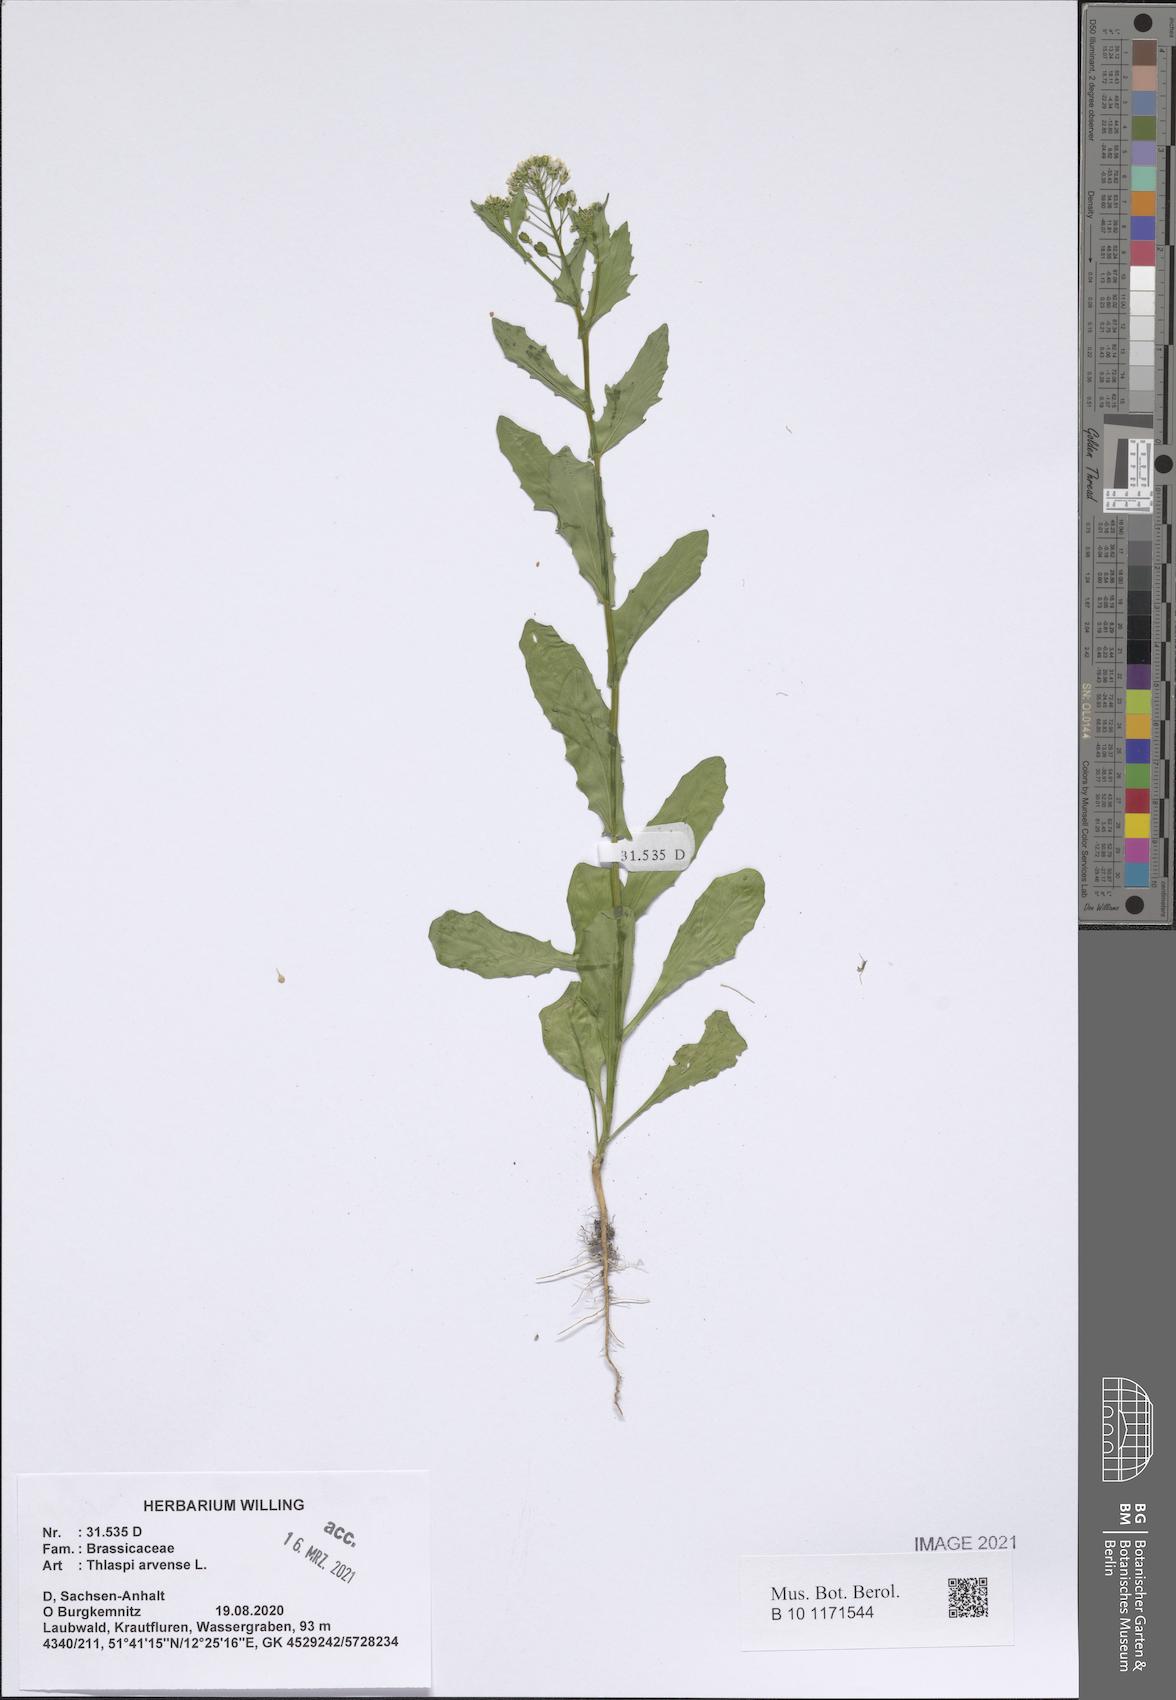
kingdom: Plantae
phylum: Tracheophyta
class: Magnoliopsida
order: Brassicales
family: Brassicaceae
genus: Thlaspi
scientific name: Thlaspi arvense
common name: Field pennycress
